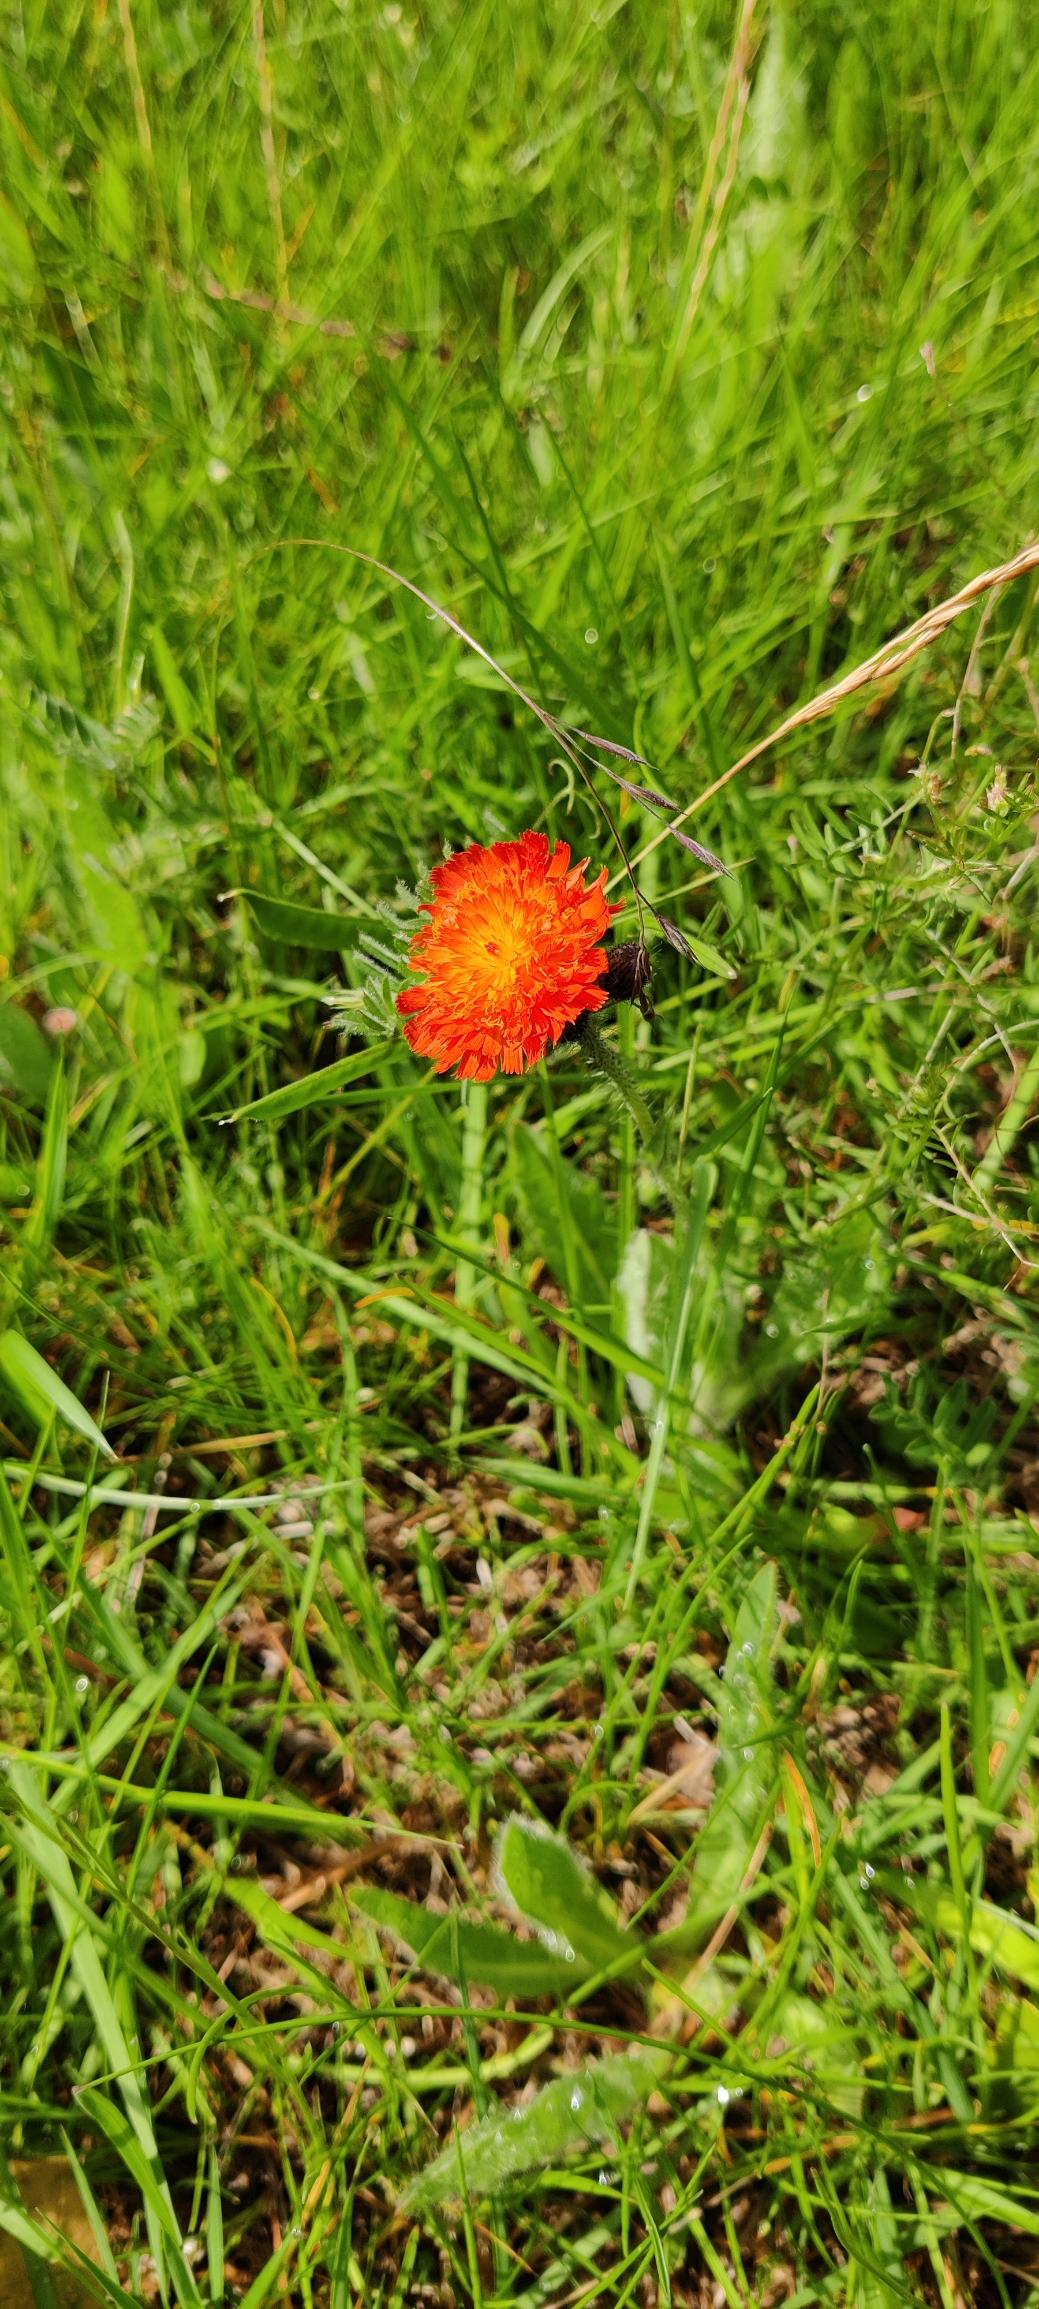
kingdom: Plantae
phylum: Tracheophyta
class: Magnoliopsida
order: Asterales
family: Asteraceae
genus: Pilosella
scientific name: Pilosella aurantiaca
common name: Pomerans-høgeurt
